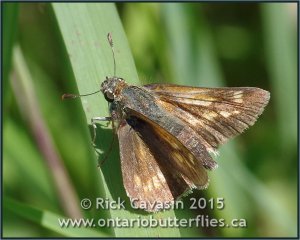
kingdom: Animalia
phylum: Arthropoda
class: Insecta
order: Lepidoptera
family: Hesperiidae
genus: Polites
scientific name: Polites
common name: Long Dash Skipper
